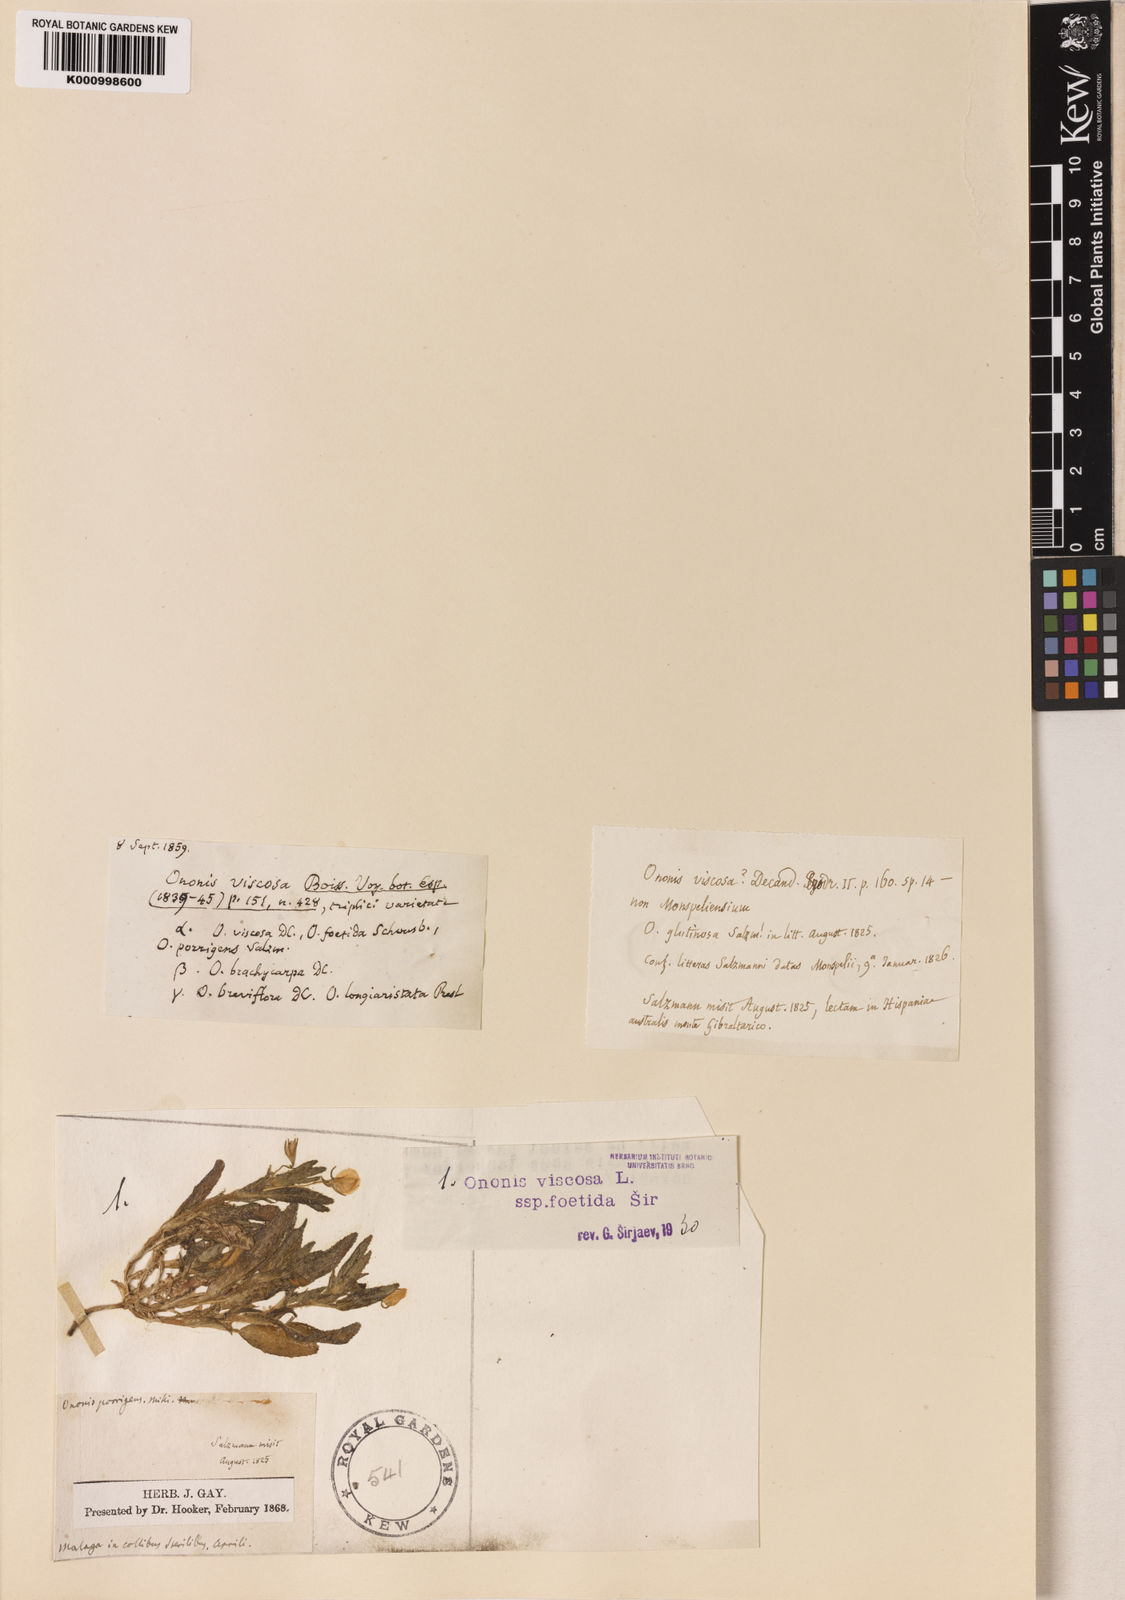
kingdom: Plantae
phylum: Tracheophyta
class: Magnoliopsida
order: Fabales
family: Fabaceae
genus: Ononis
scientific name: Ononis viscosa
